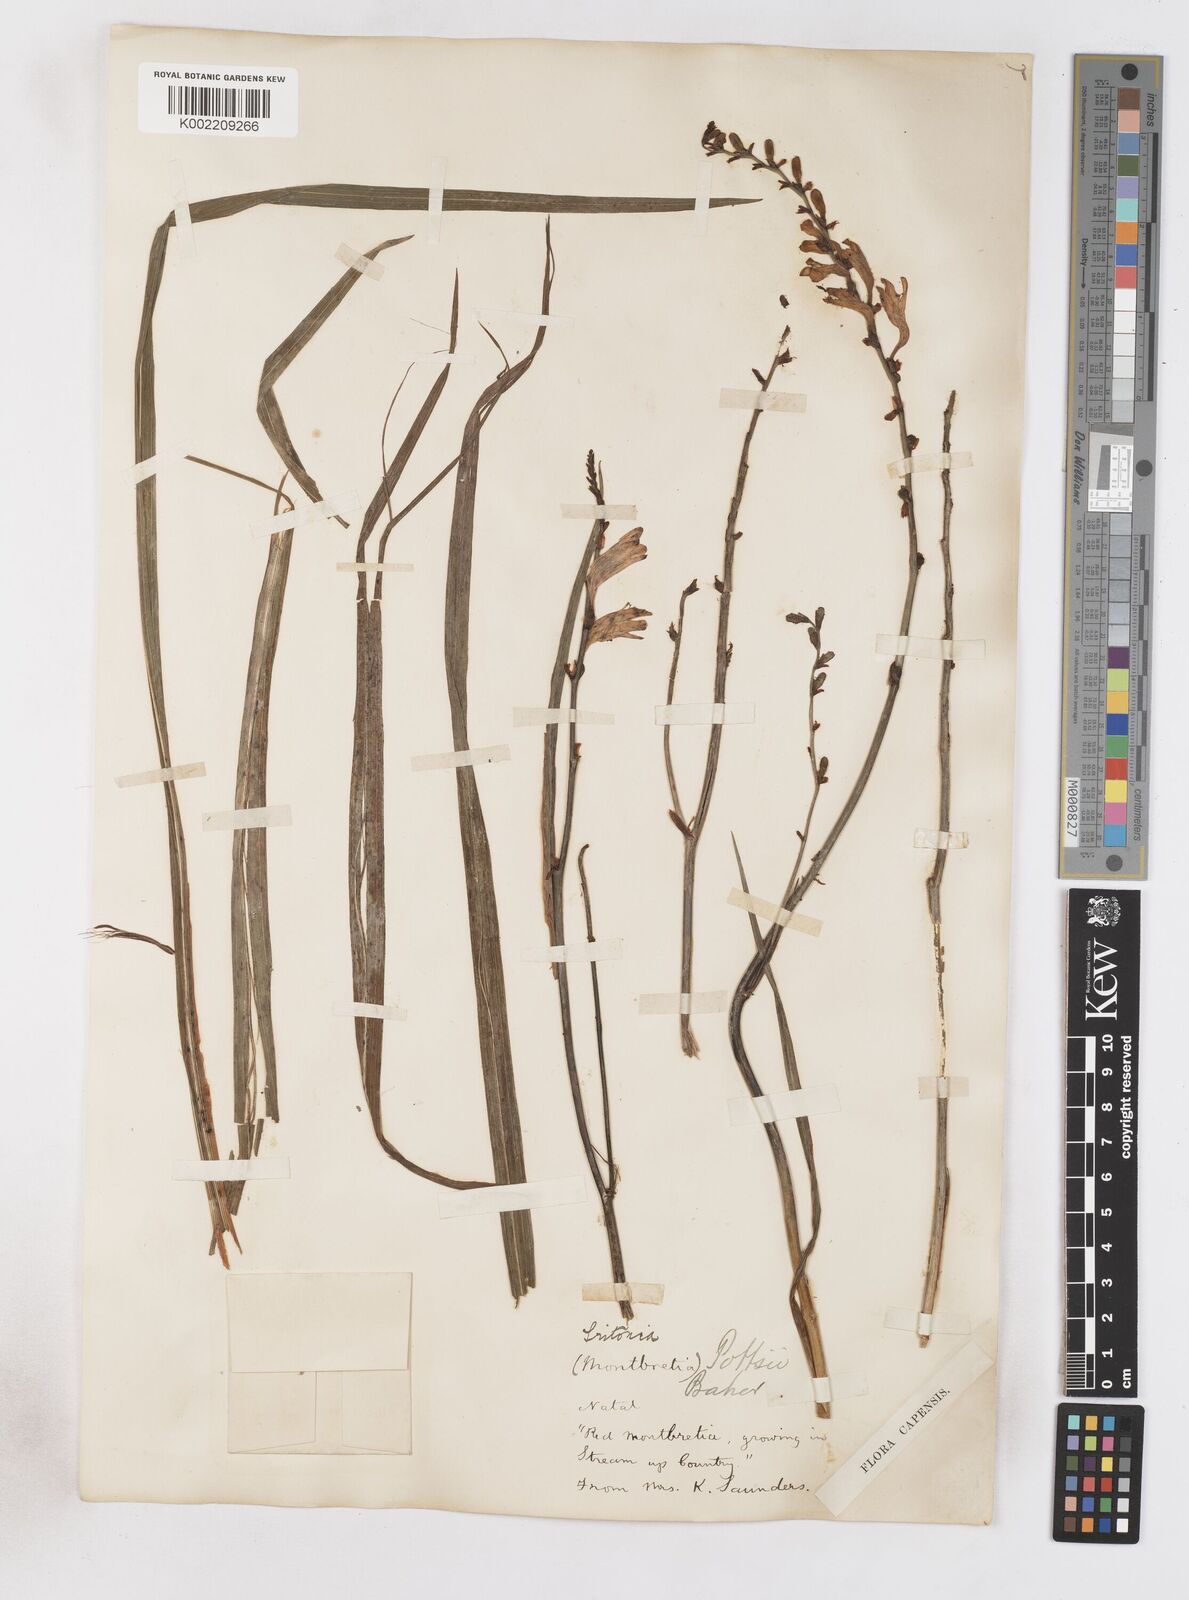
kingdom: Plantae
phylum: Tracheophyta
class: Liliopsida
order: Asparagales
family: Iridaceae
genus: Crocosmia
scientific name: Crocosmia pottsii
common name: Pott's montbretia
